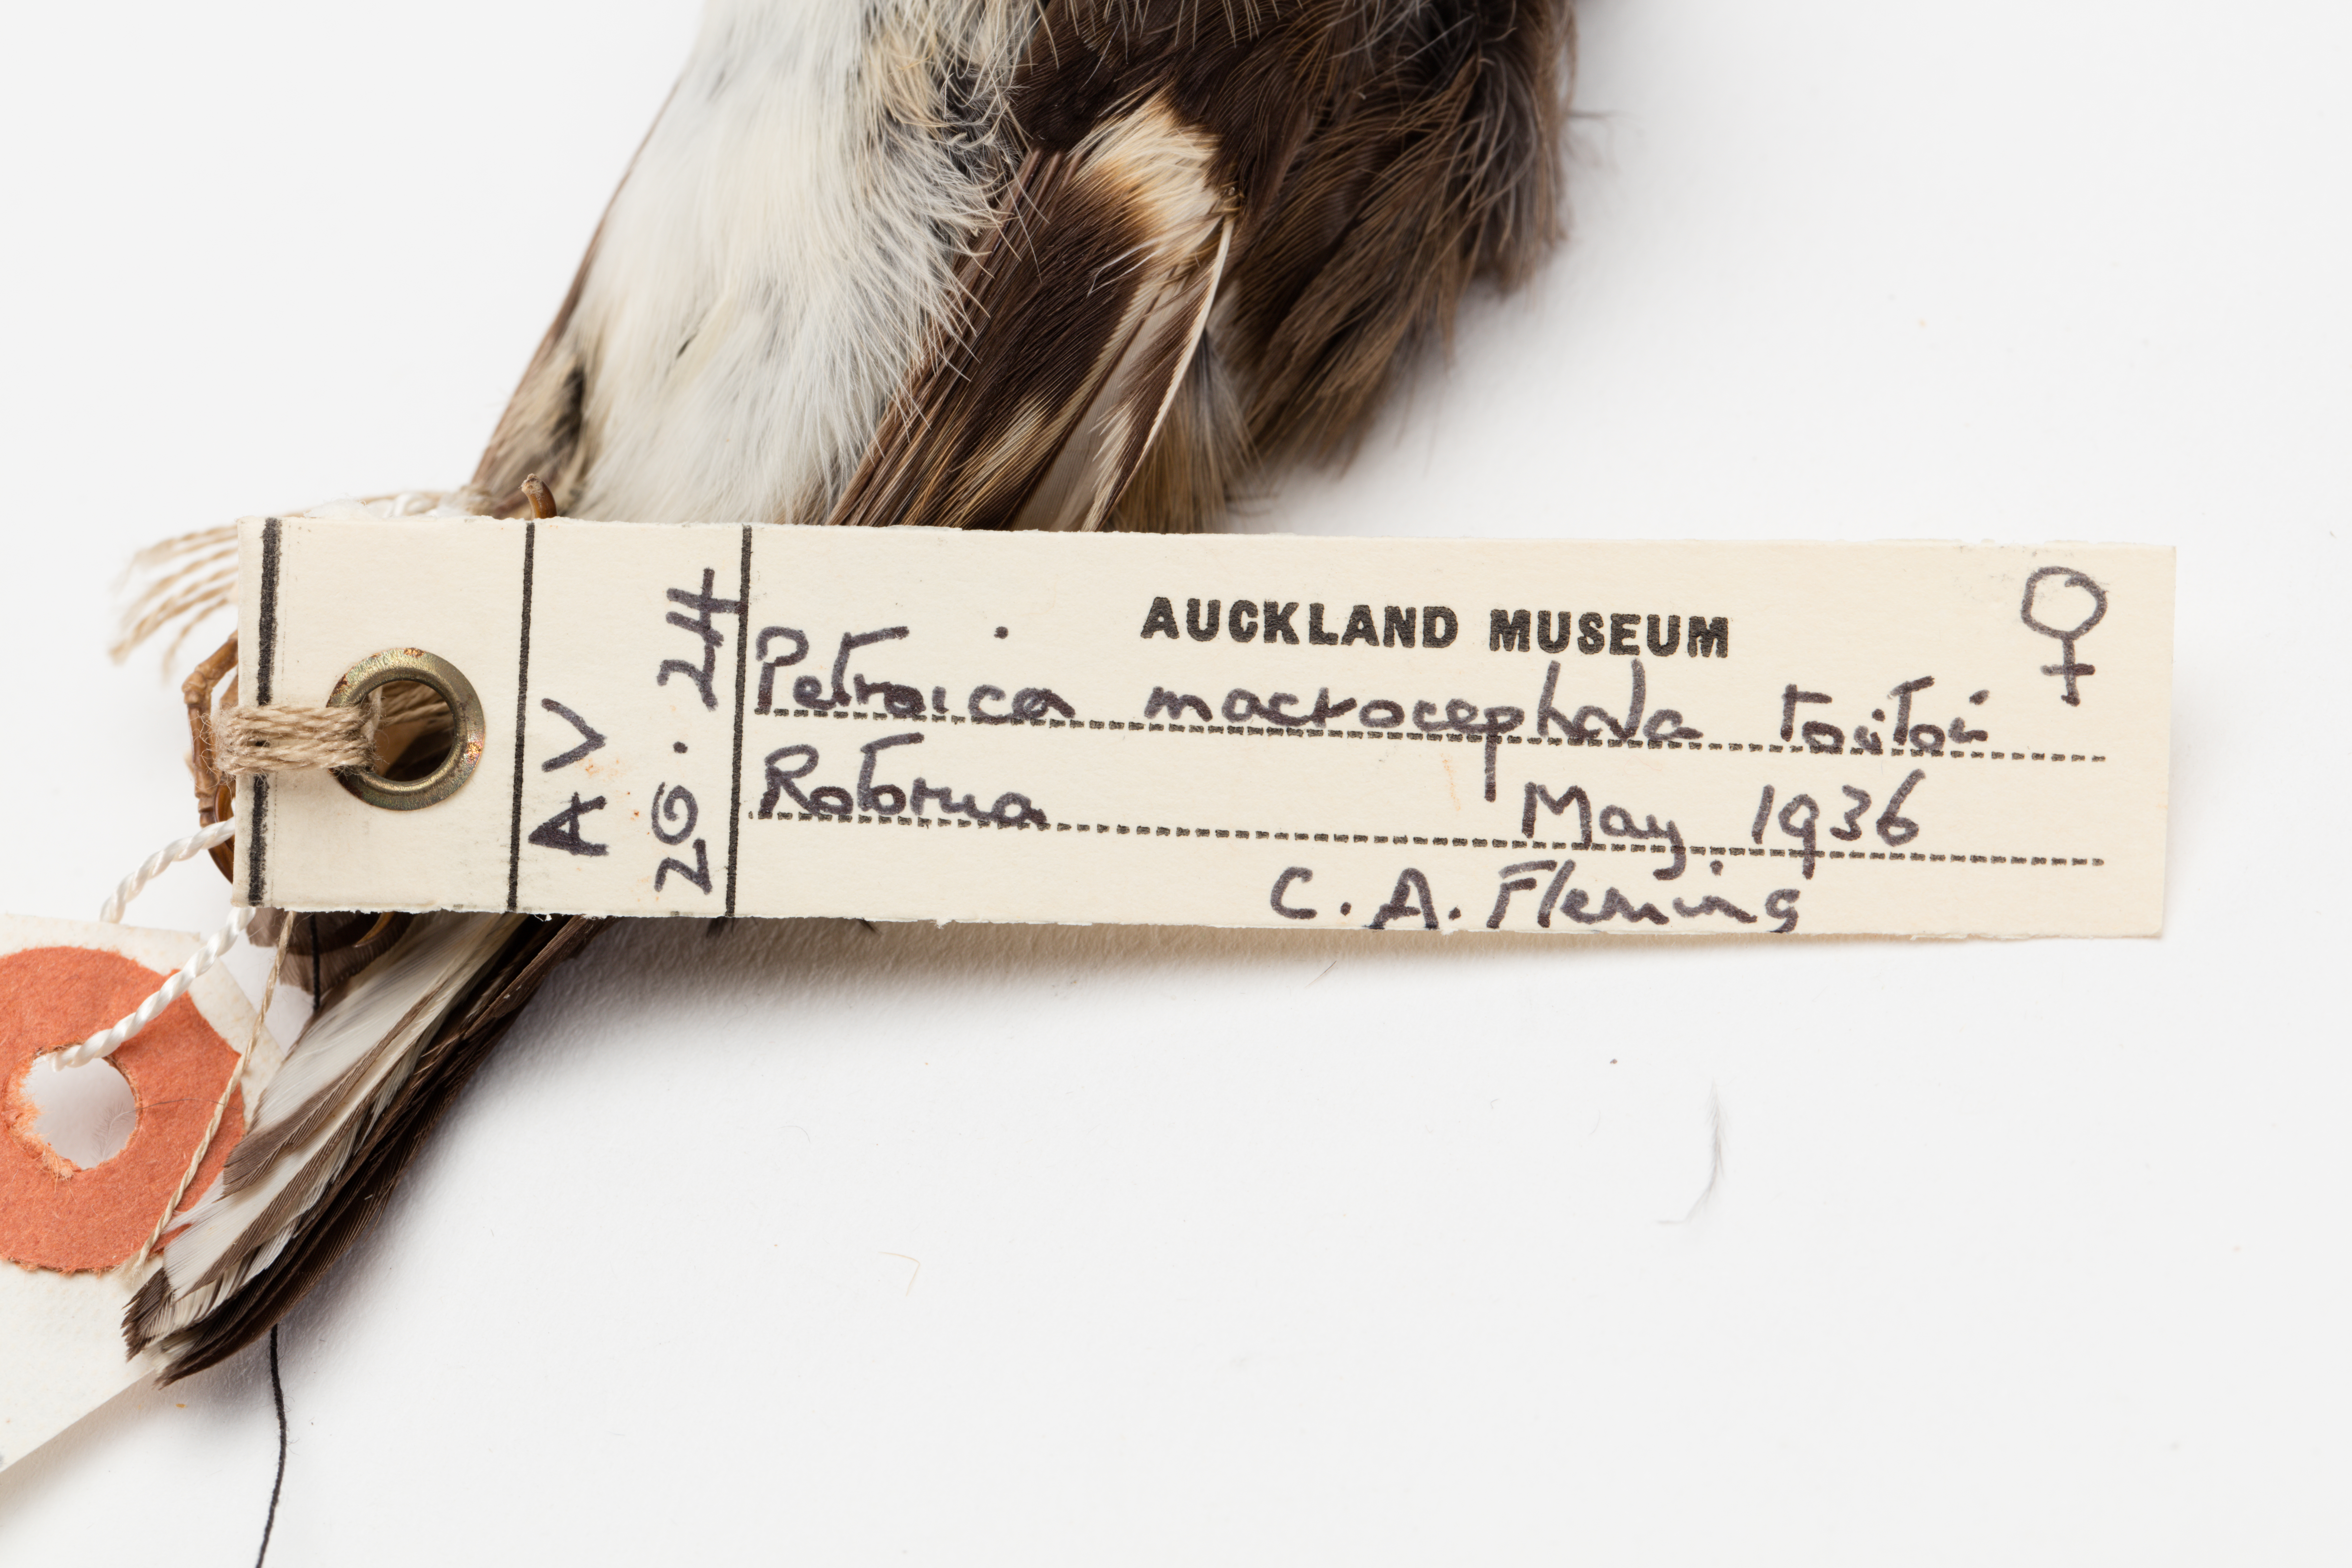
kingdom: Animalia
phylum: Chordata
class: Aves
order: Passeriformes
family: Petroicidae
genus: Petroica
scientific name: Petroica macrocephala
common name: Tomtit
